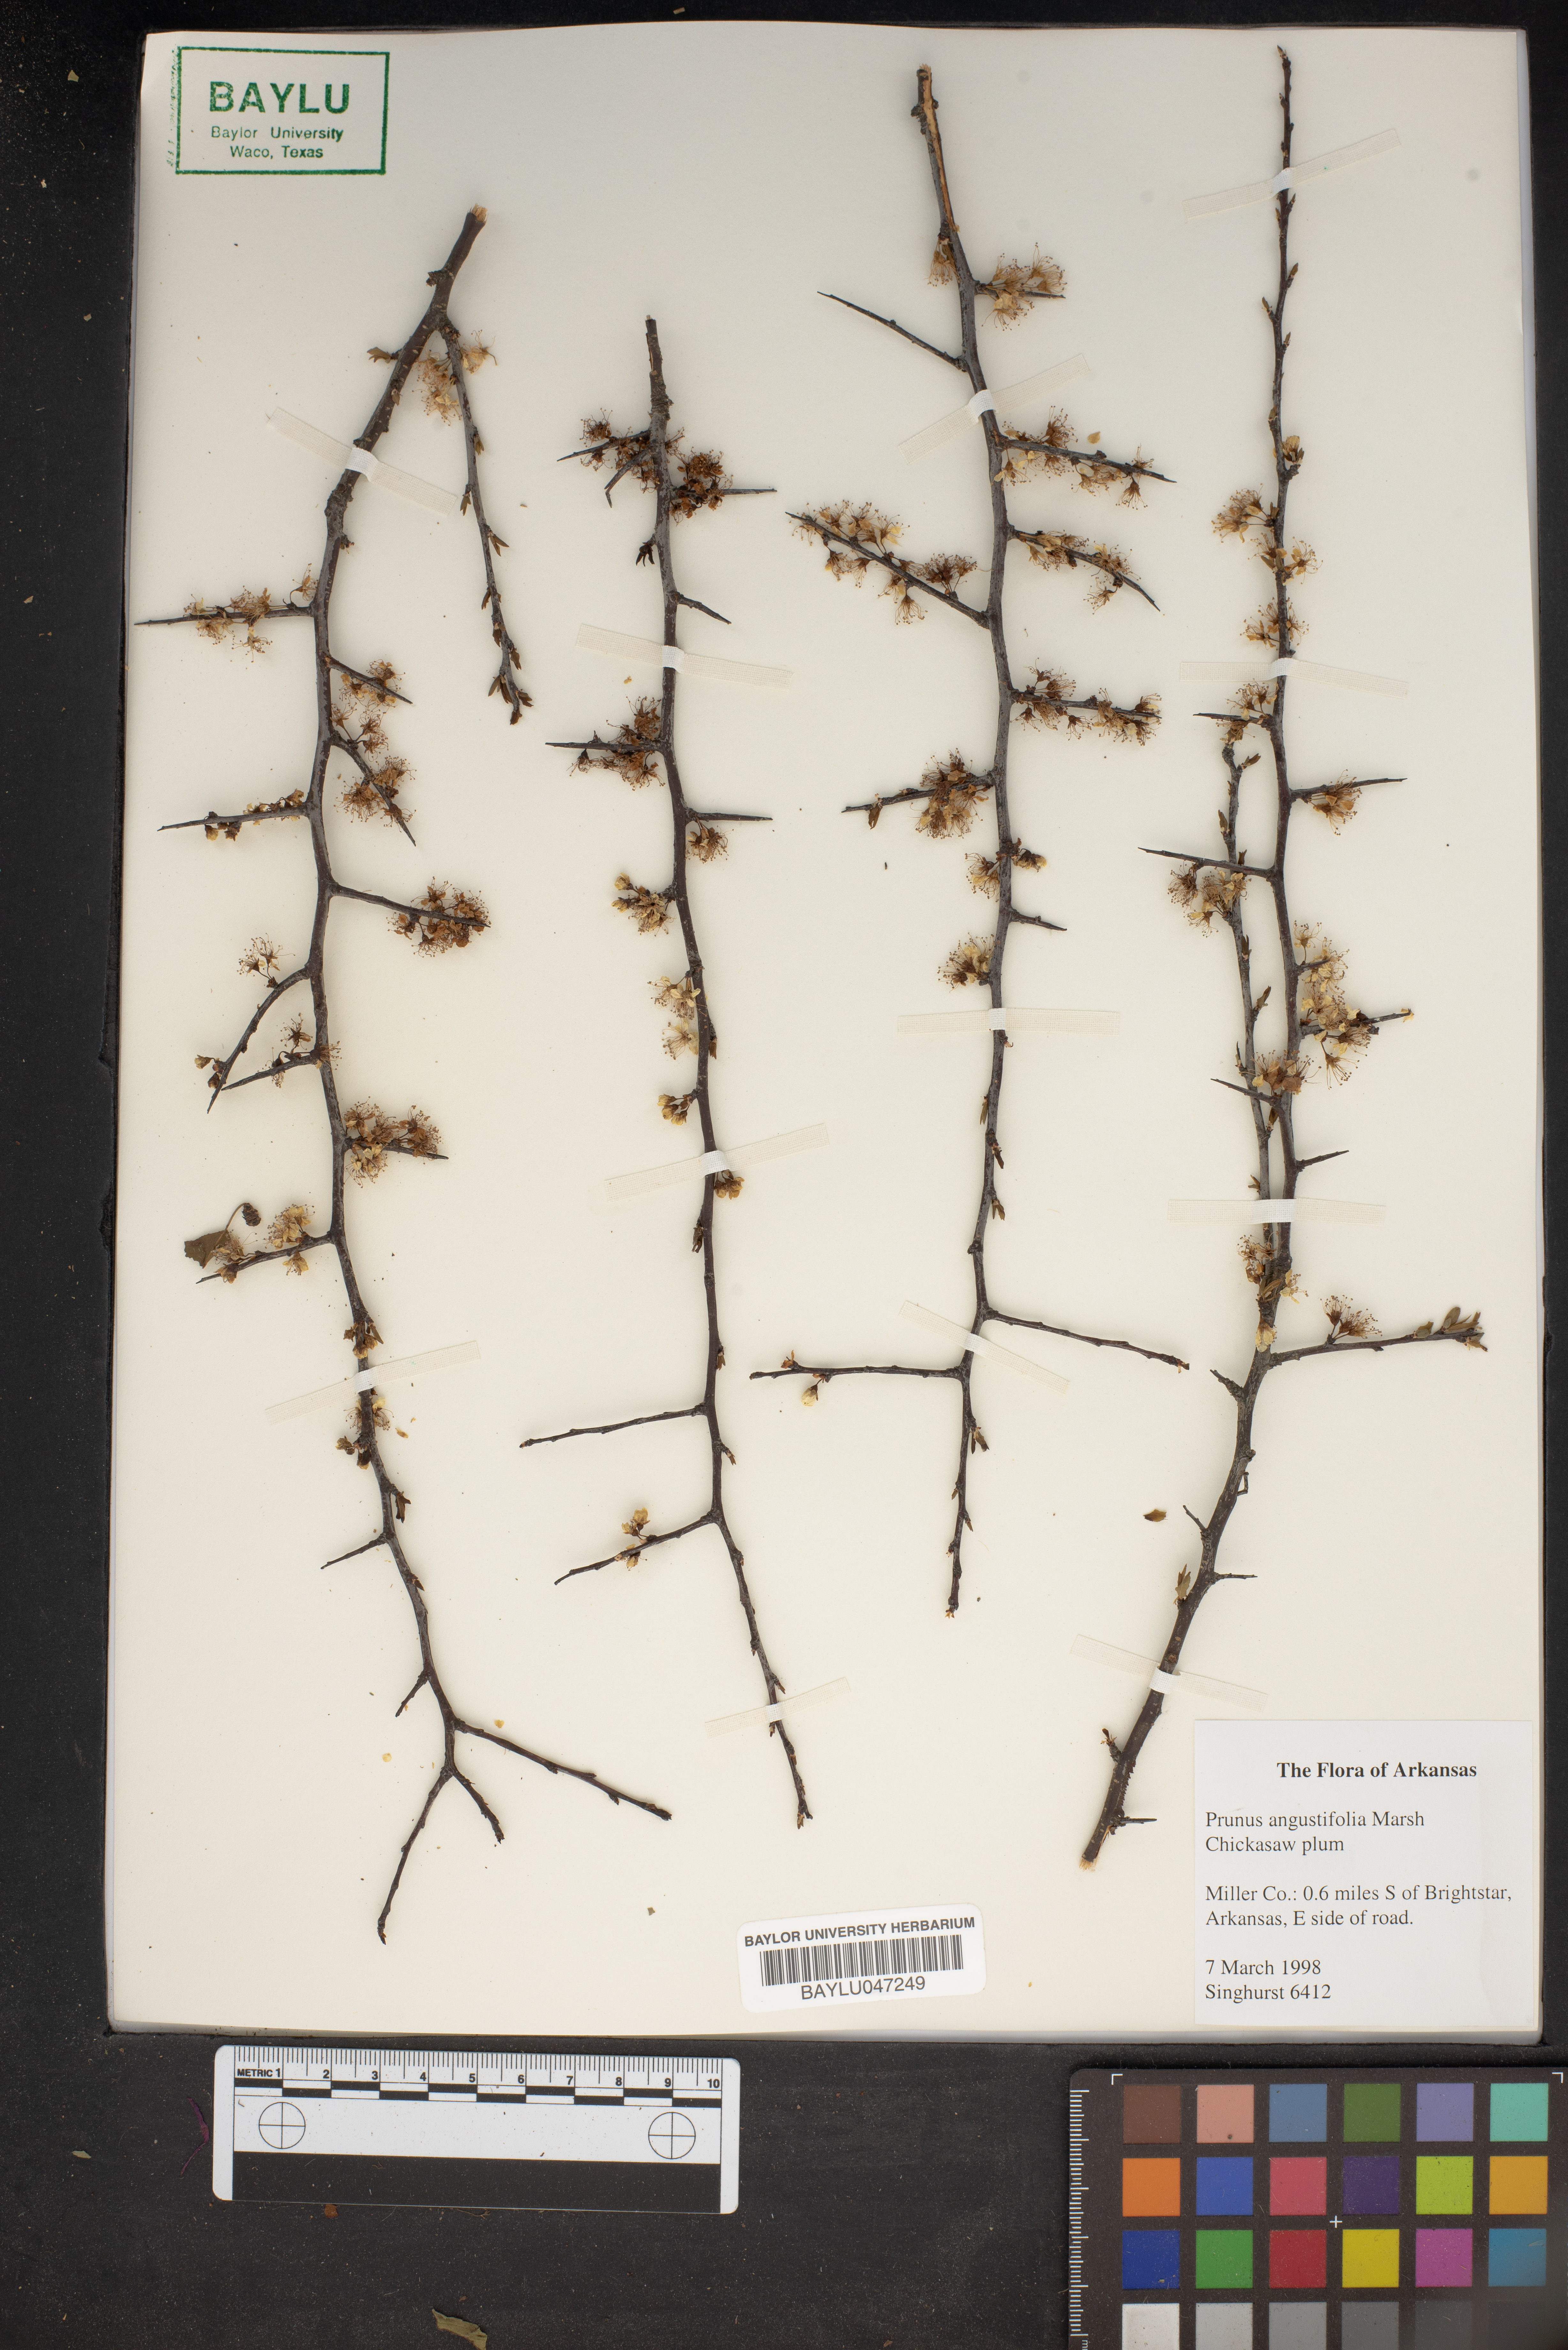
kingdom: Plantae
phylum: Tracheophyta
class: Magnoliopsida
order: Rosales
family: Rosaceae
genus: Prunus
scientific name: Prunus angustifolia
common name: Cherokee plum
